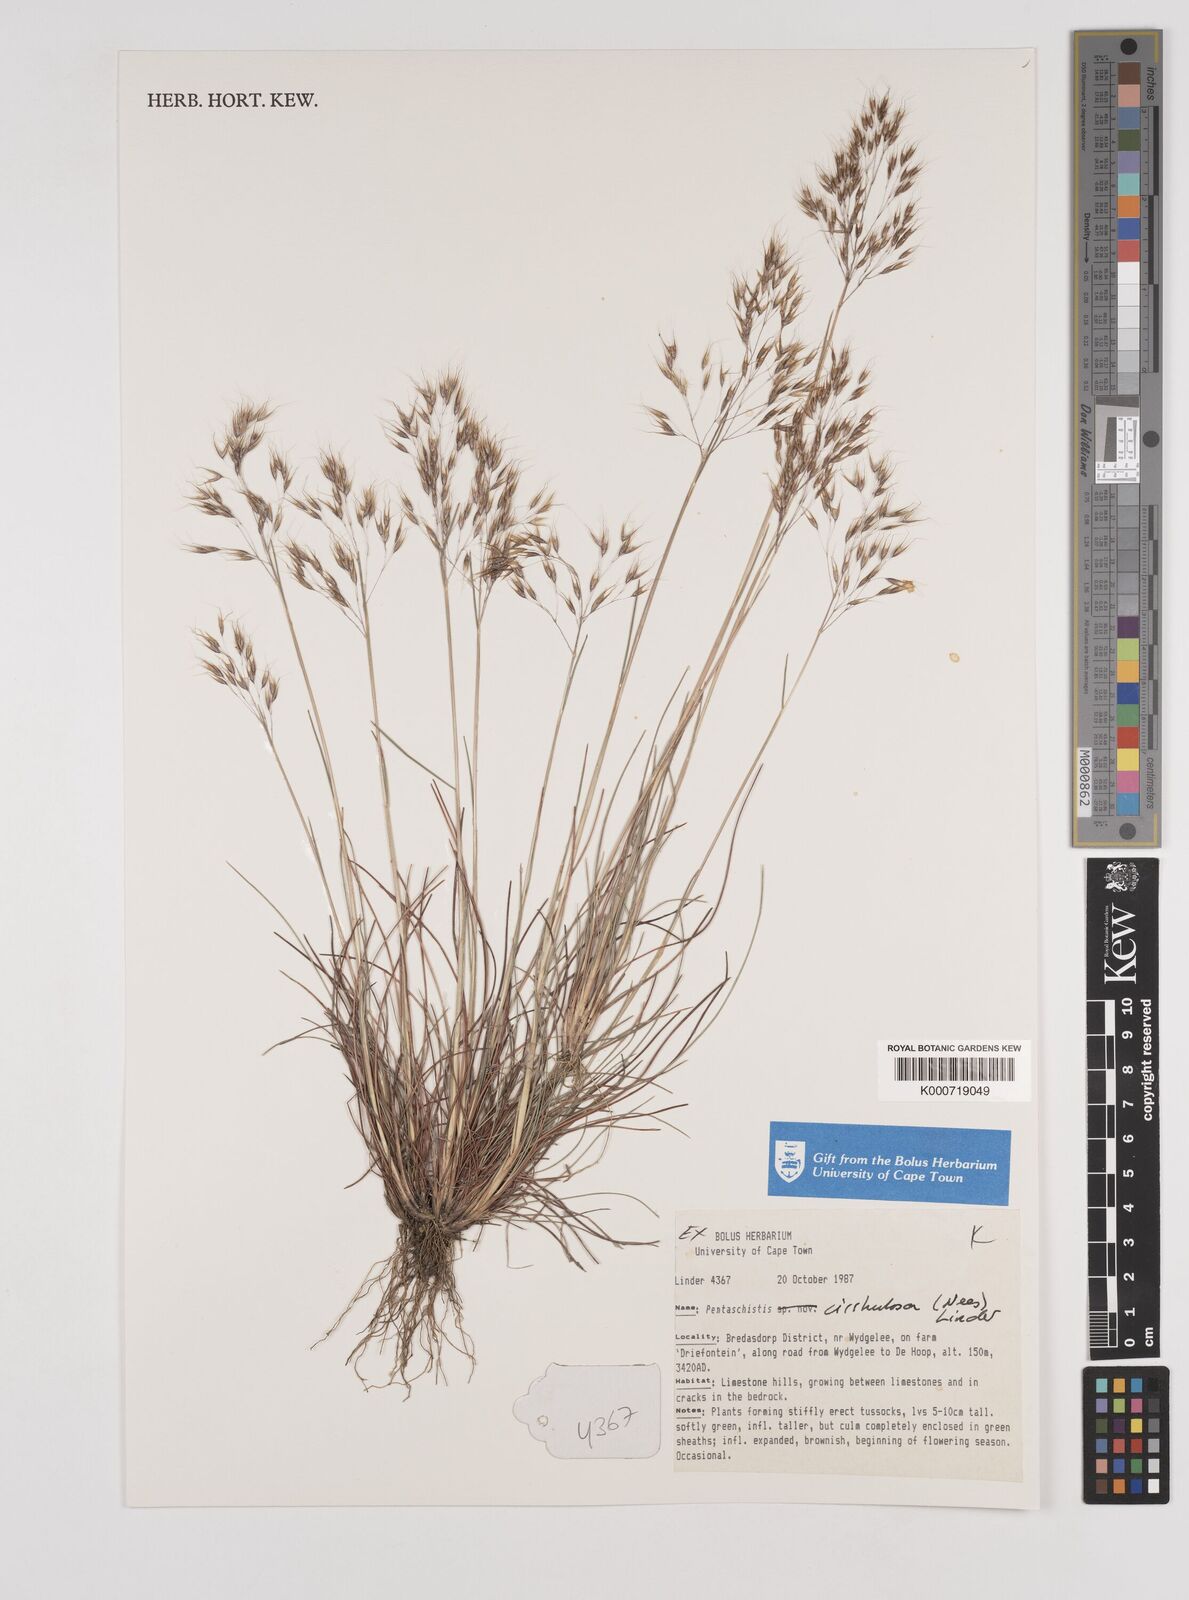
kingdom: Plantae
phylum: Tracheophyta
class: Liliopsida
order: Poales
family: Poaceae
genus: Pentameris
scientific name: Pentameris cirrhulosa
